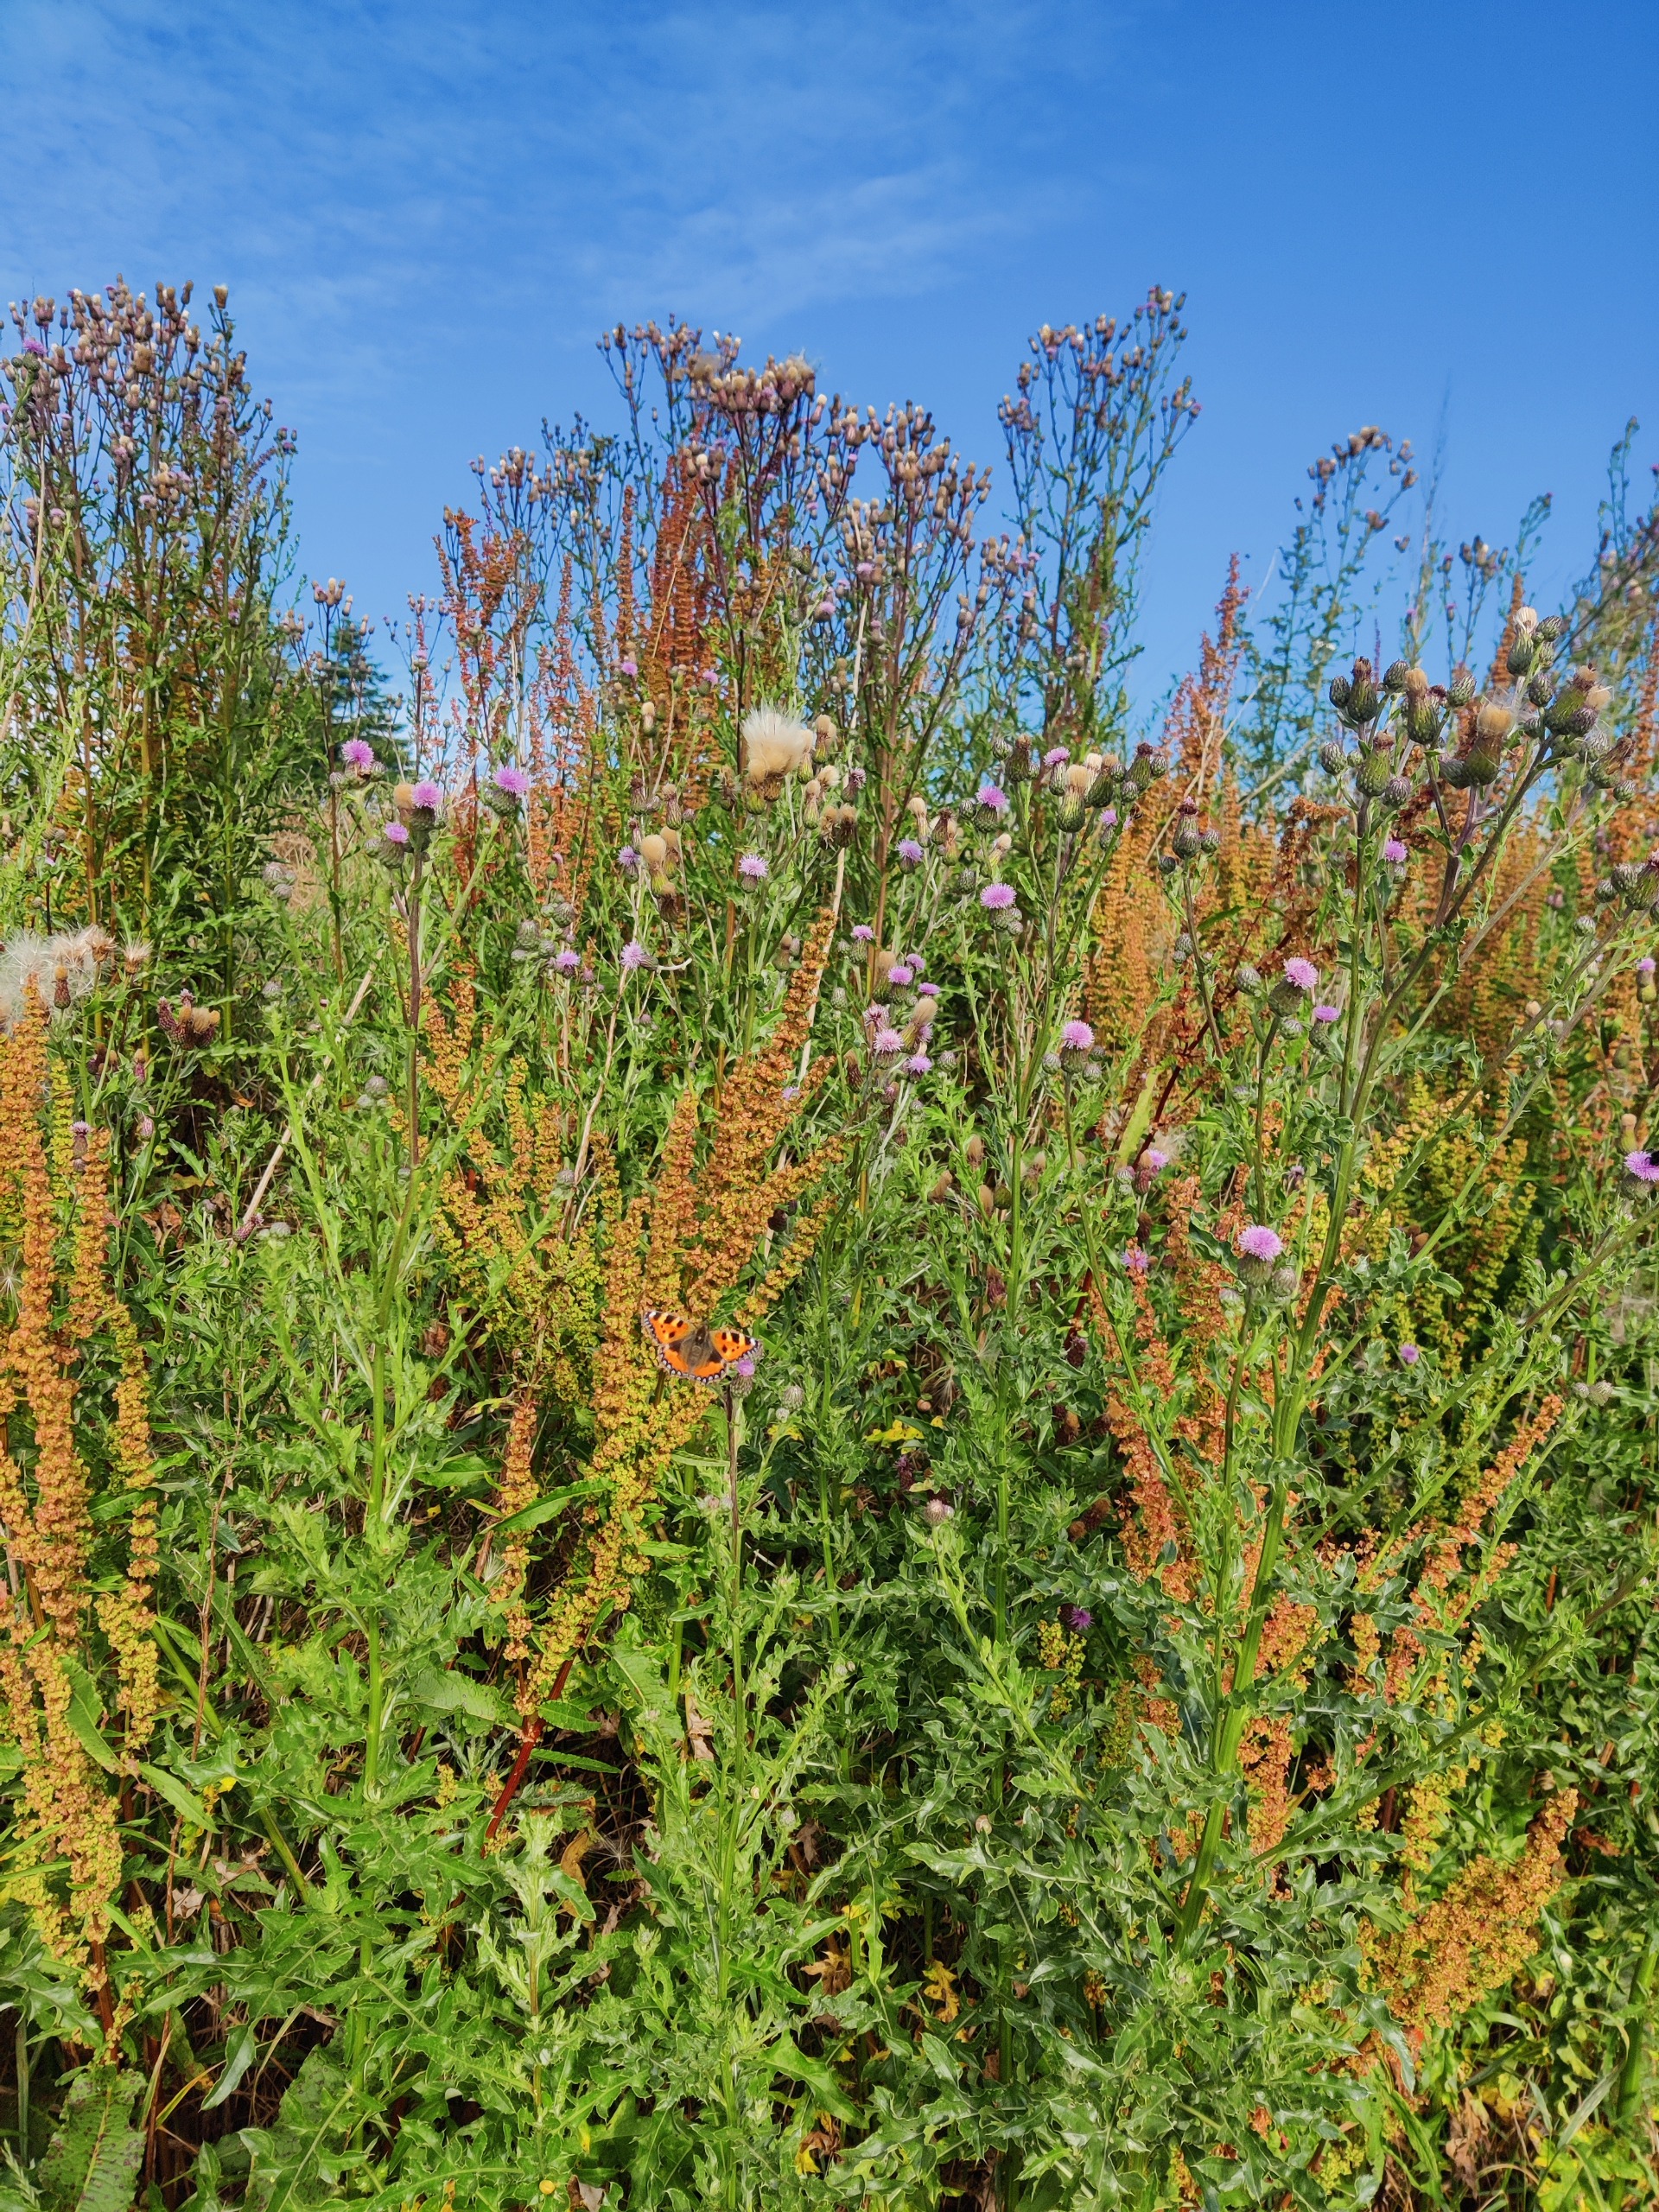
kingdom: Animalia
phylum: Arthropoda
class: Insecta
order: Lepidoptera
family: Nymphalidae
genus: Aglais
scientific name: Aglais urticae
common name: Nældens takvinge
